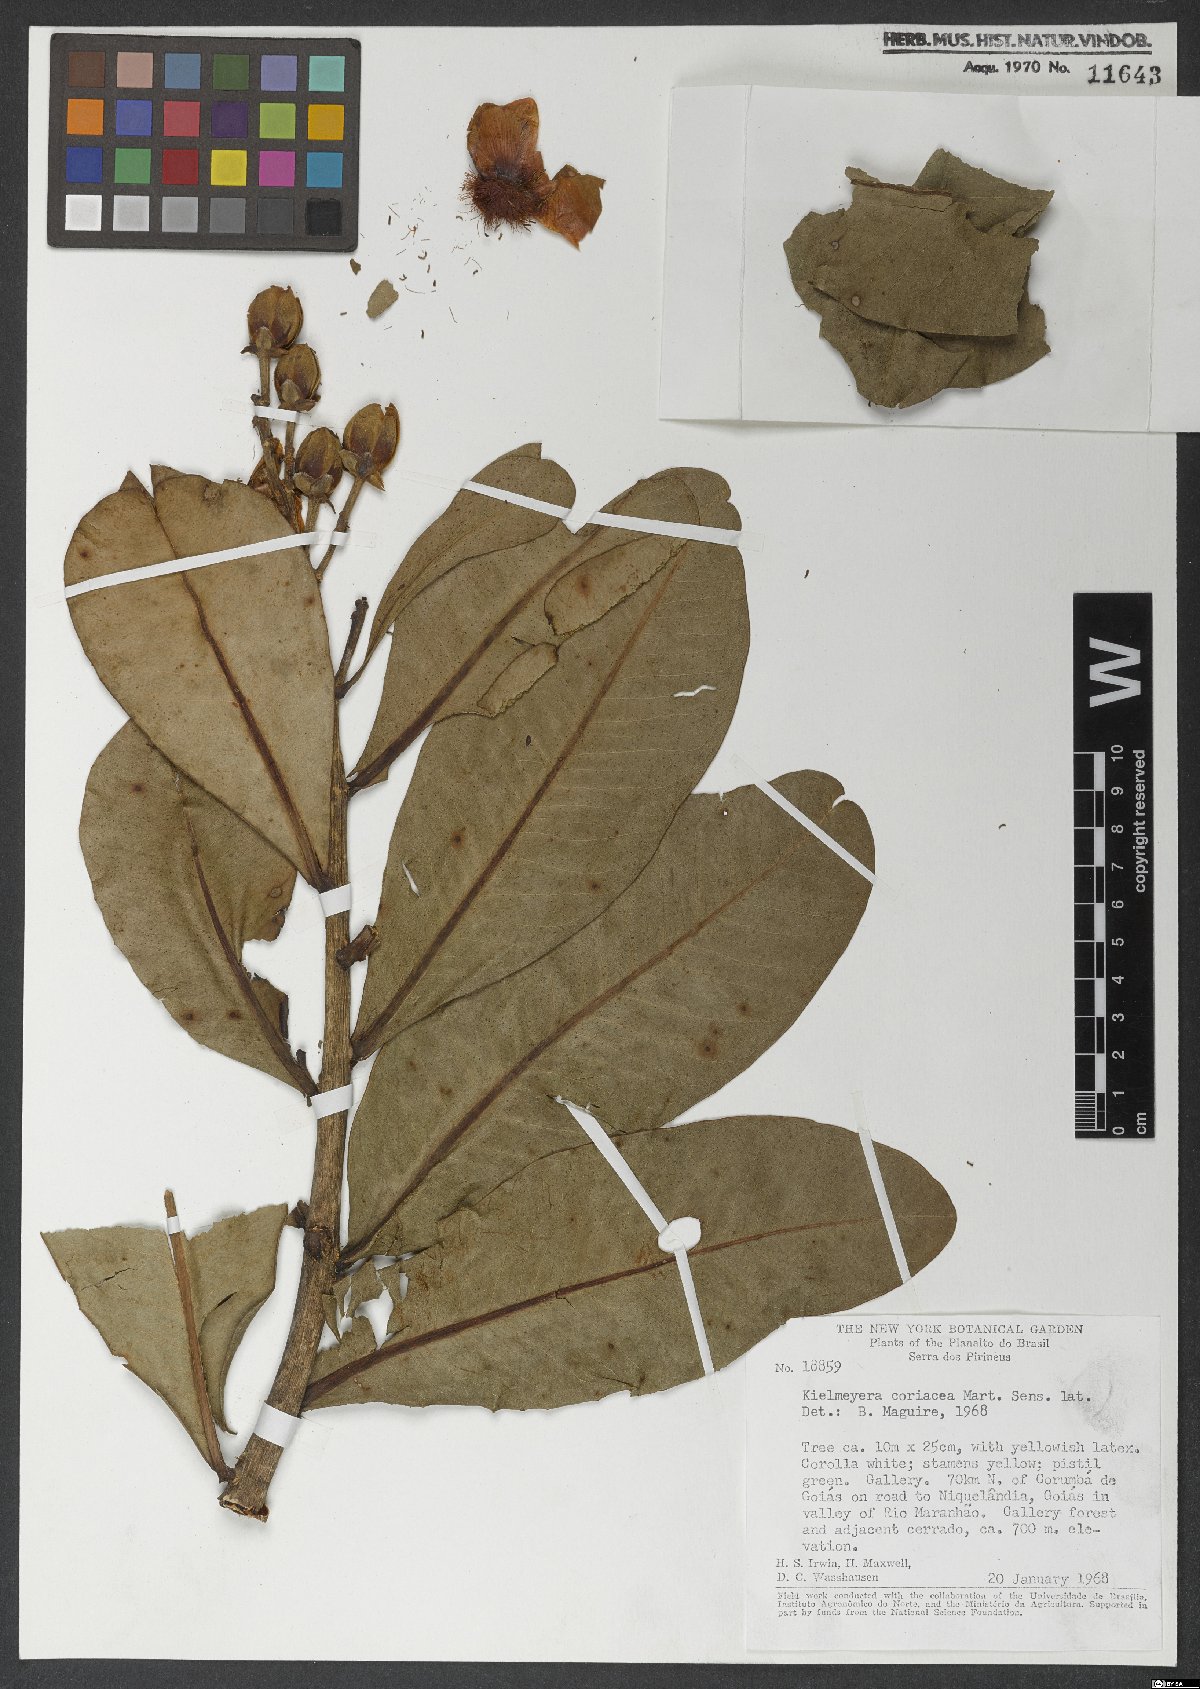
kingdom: Plantae
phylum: Tracheophyta
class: Magnoliopsida
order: Malpighiales
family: Calophyllaceae
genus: Kielmeyera
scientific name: Kielmeyera coriacea
